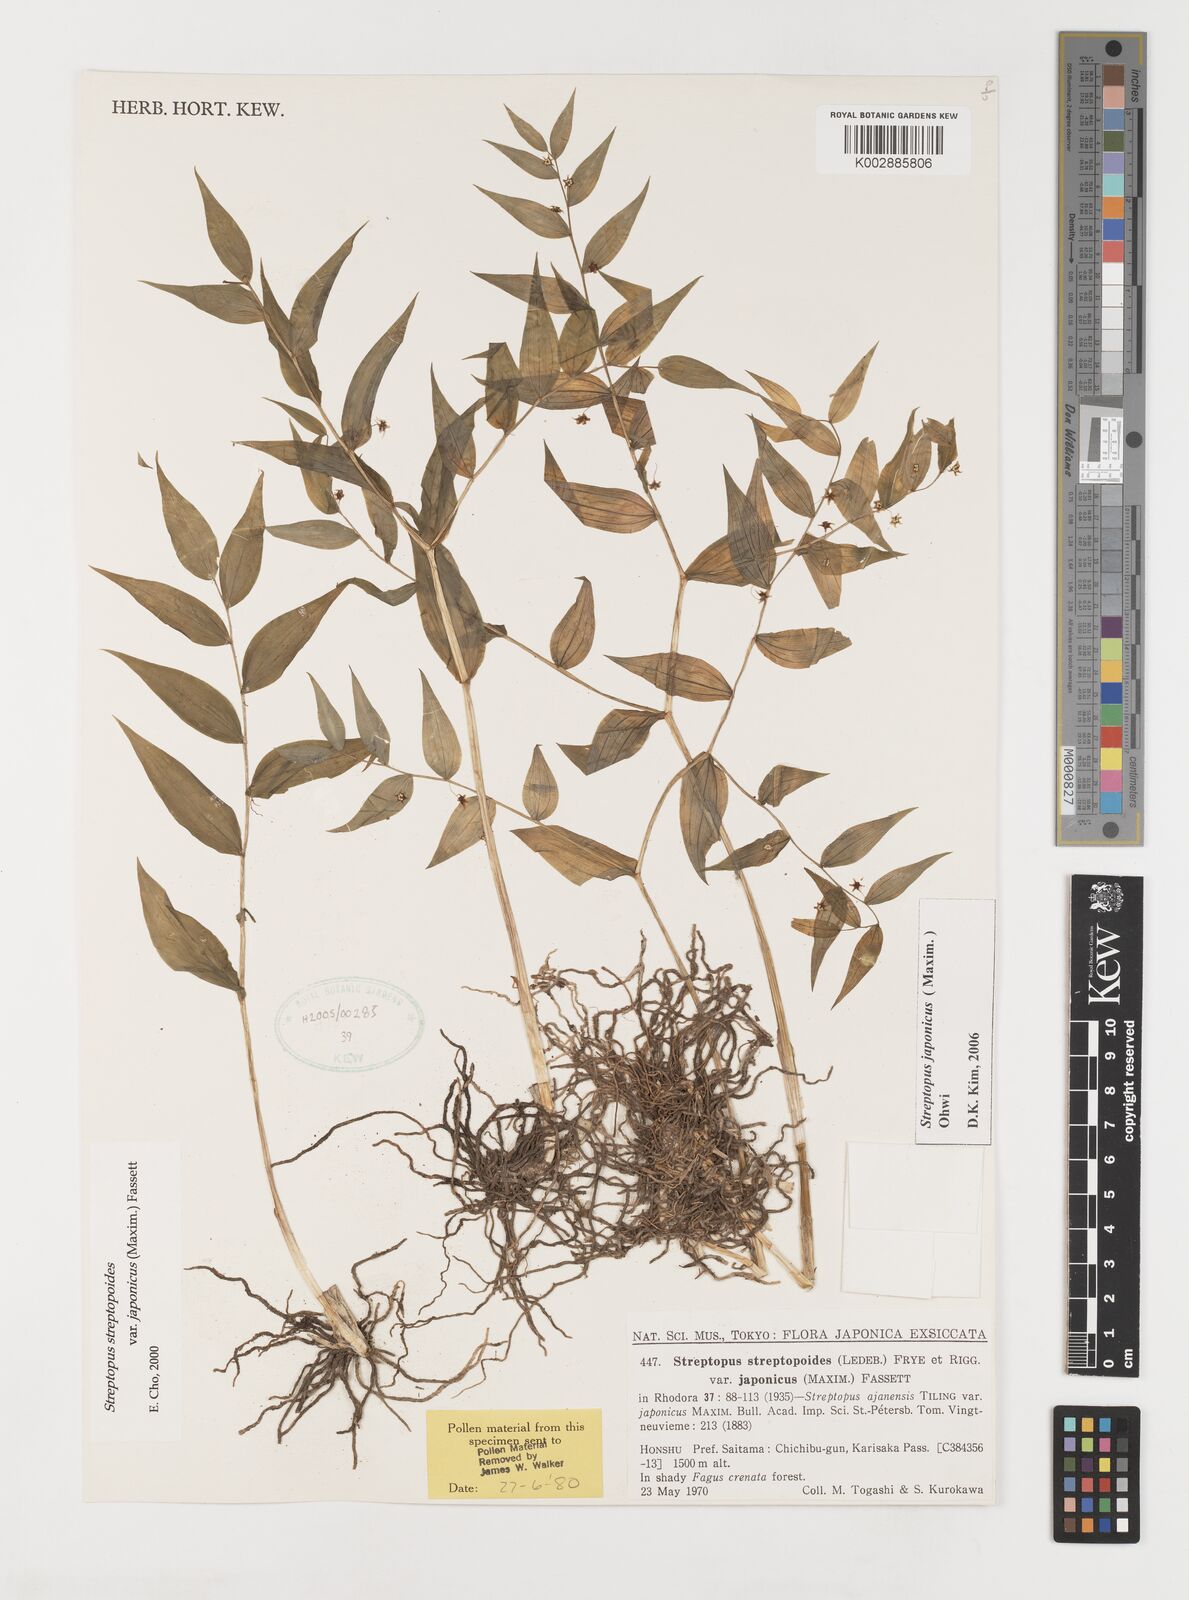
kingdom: Plantae
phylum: Tracheophyta
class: Liliopsida
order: Liliales
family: Liliaceae
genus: Streptopus
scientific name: Streptopus streptopoides
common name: Small twisted-stalk
